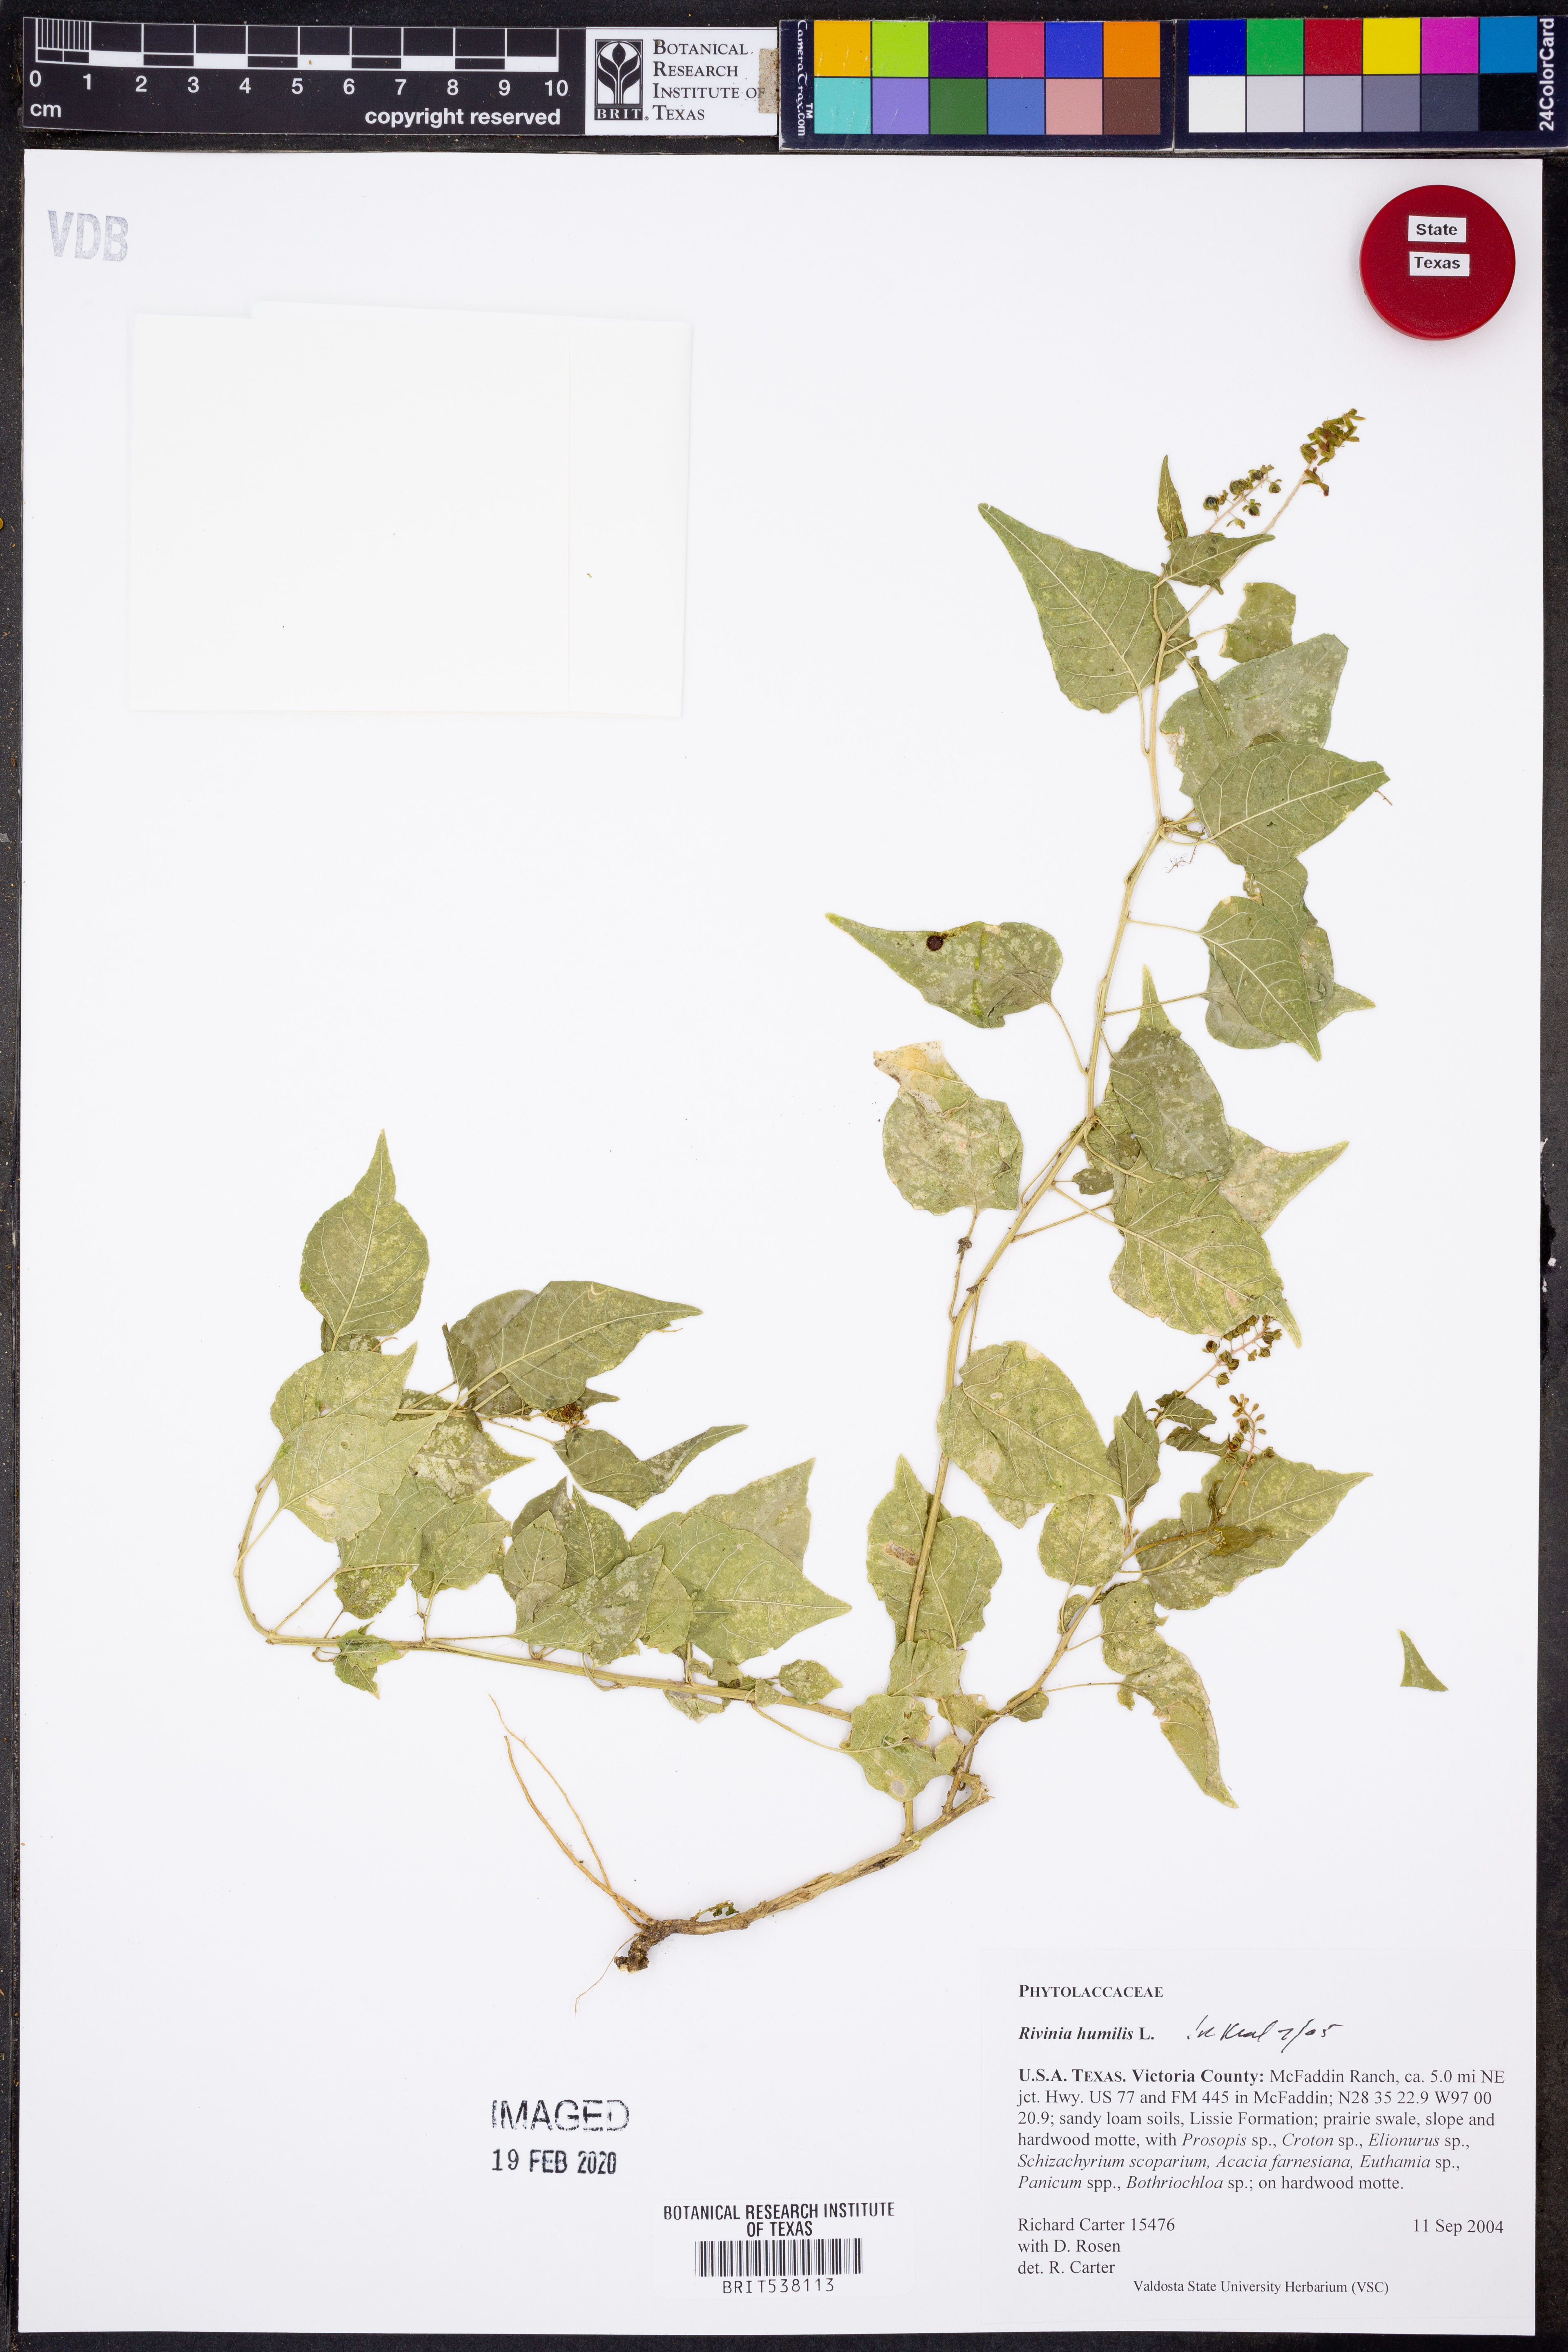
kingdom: Plantae
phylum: Tracheophyta
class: Magnoliopsida
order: Caryophyllales
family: Phytolaccaceae
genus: Rivina
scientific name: Rivina humilis
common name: Rougeplant
